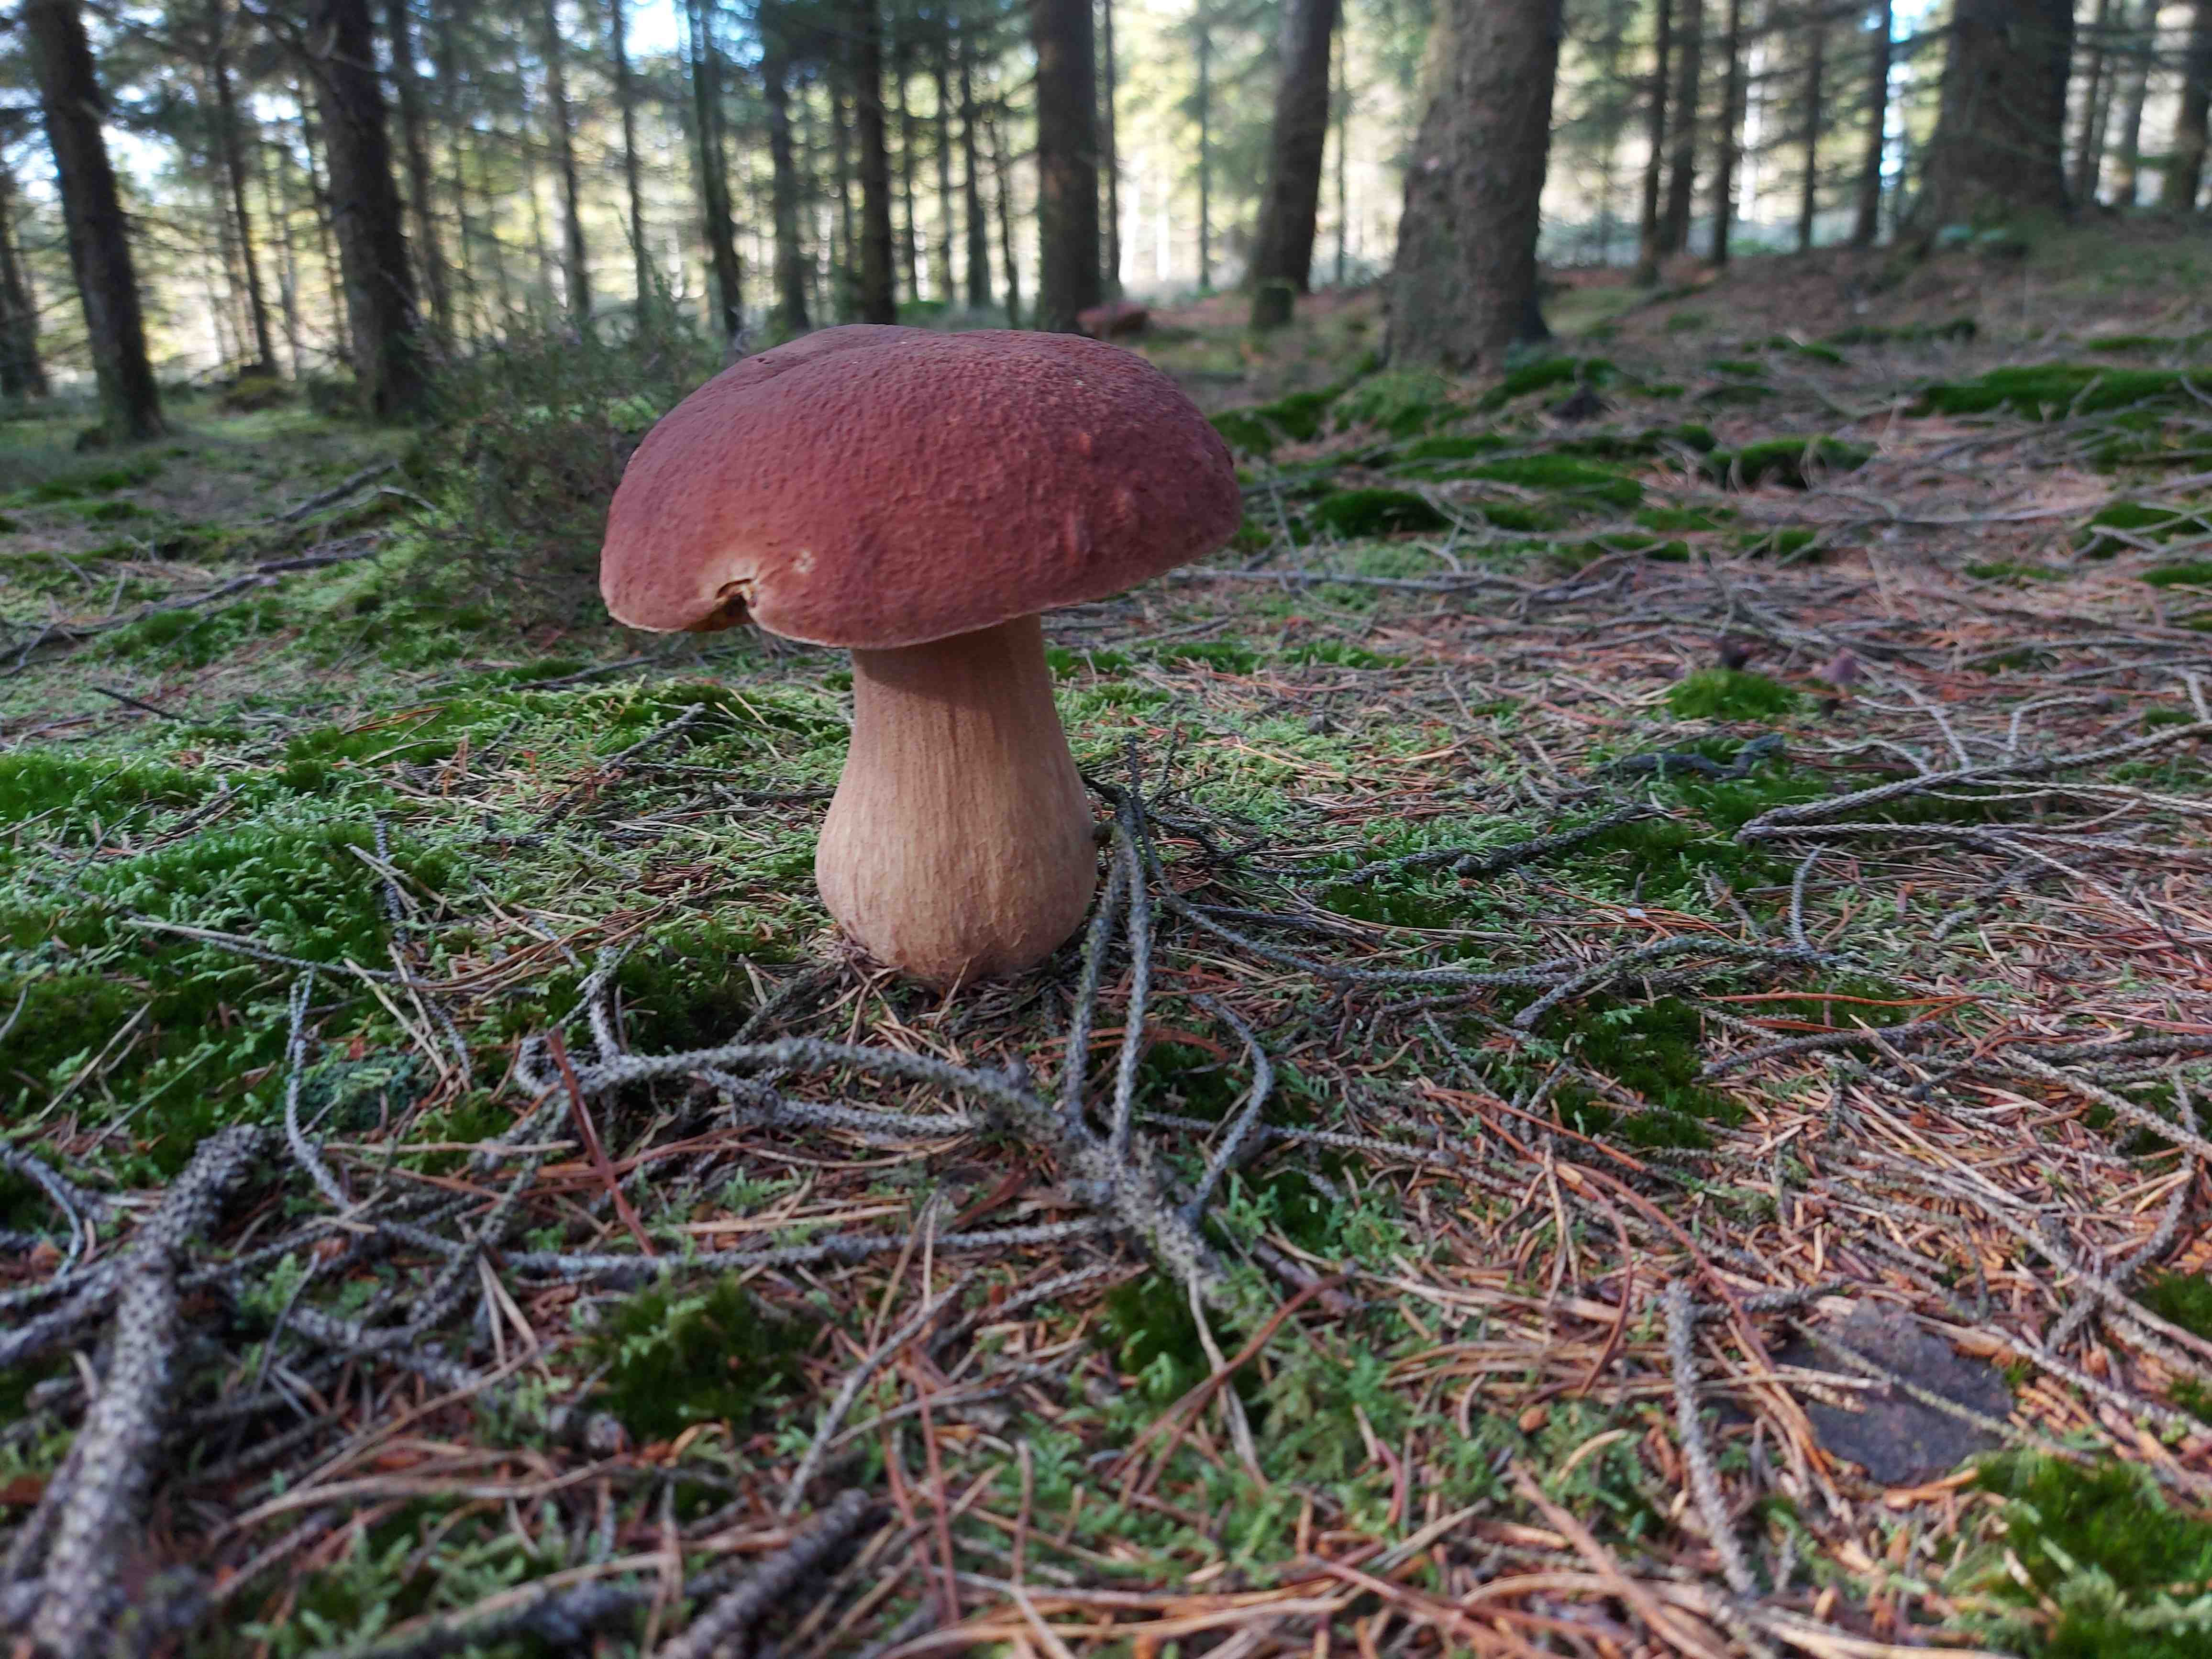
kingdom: Fungi
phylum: Basidiomycota
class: Agaricomycetes
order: Boletales
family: Boletaceae
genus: Boletus
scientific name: Boletus pinophilus
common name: rødbrun rørhat
